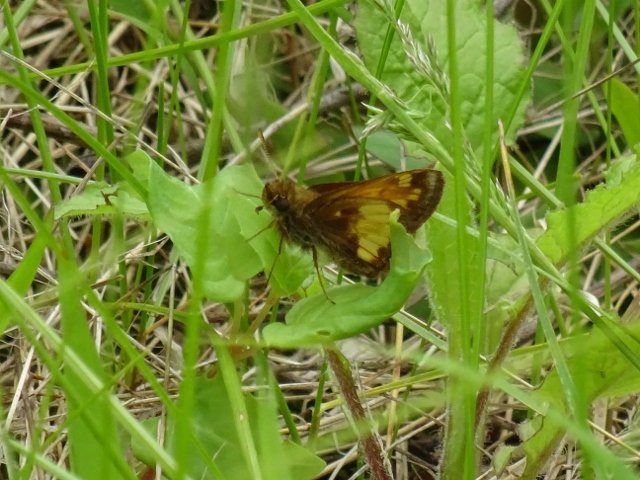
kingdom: Animalia
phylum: Arthropoda
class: Insecta
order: Lepidoptera
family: Hesperiidae
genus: Lon
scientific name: Lon hobomok
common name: Hobomok Skipper
